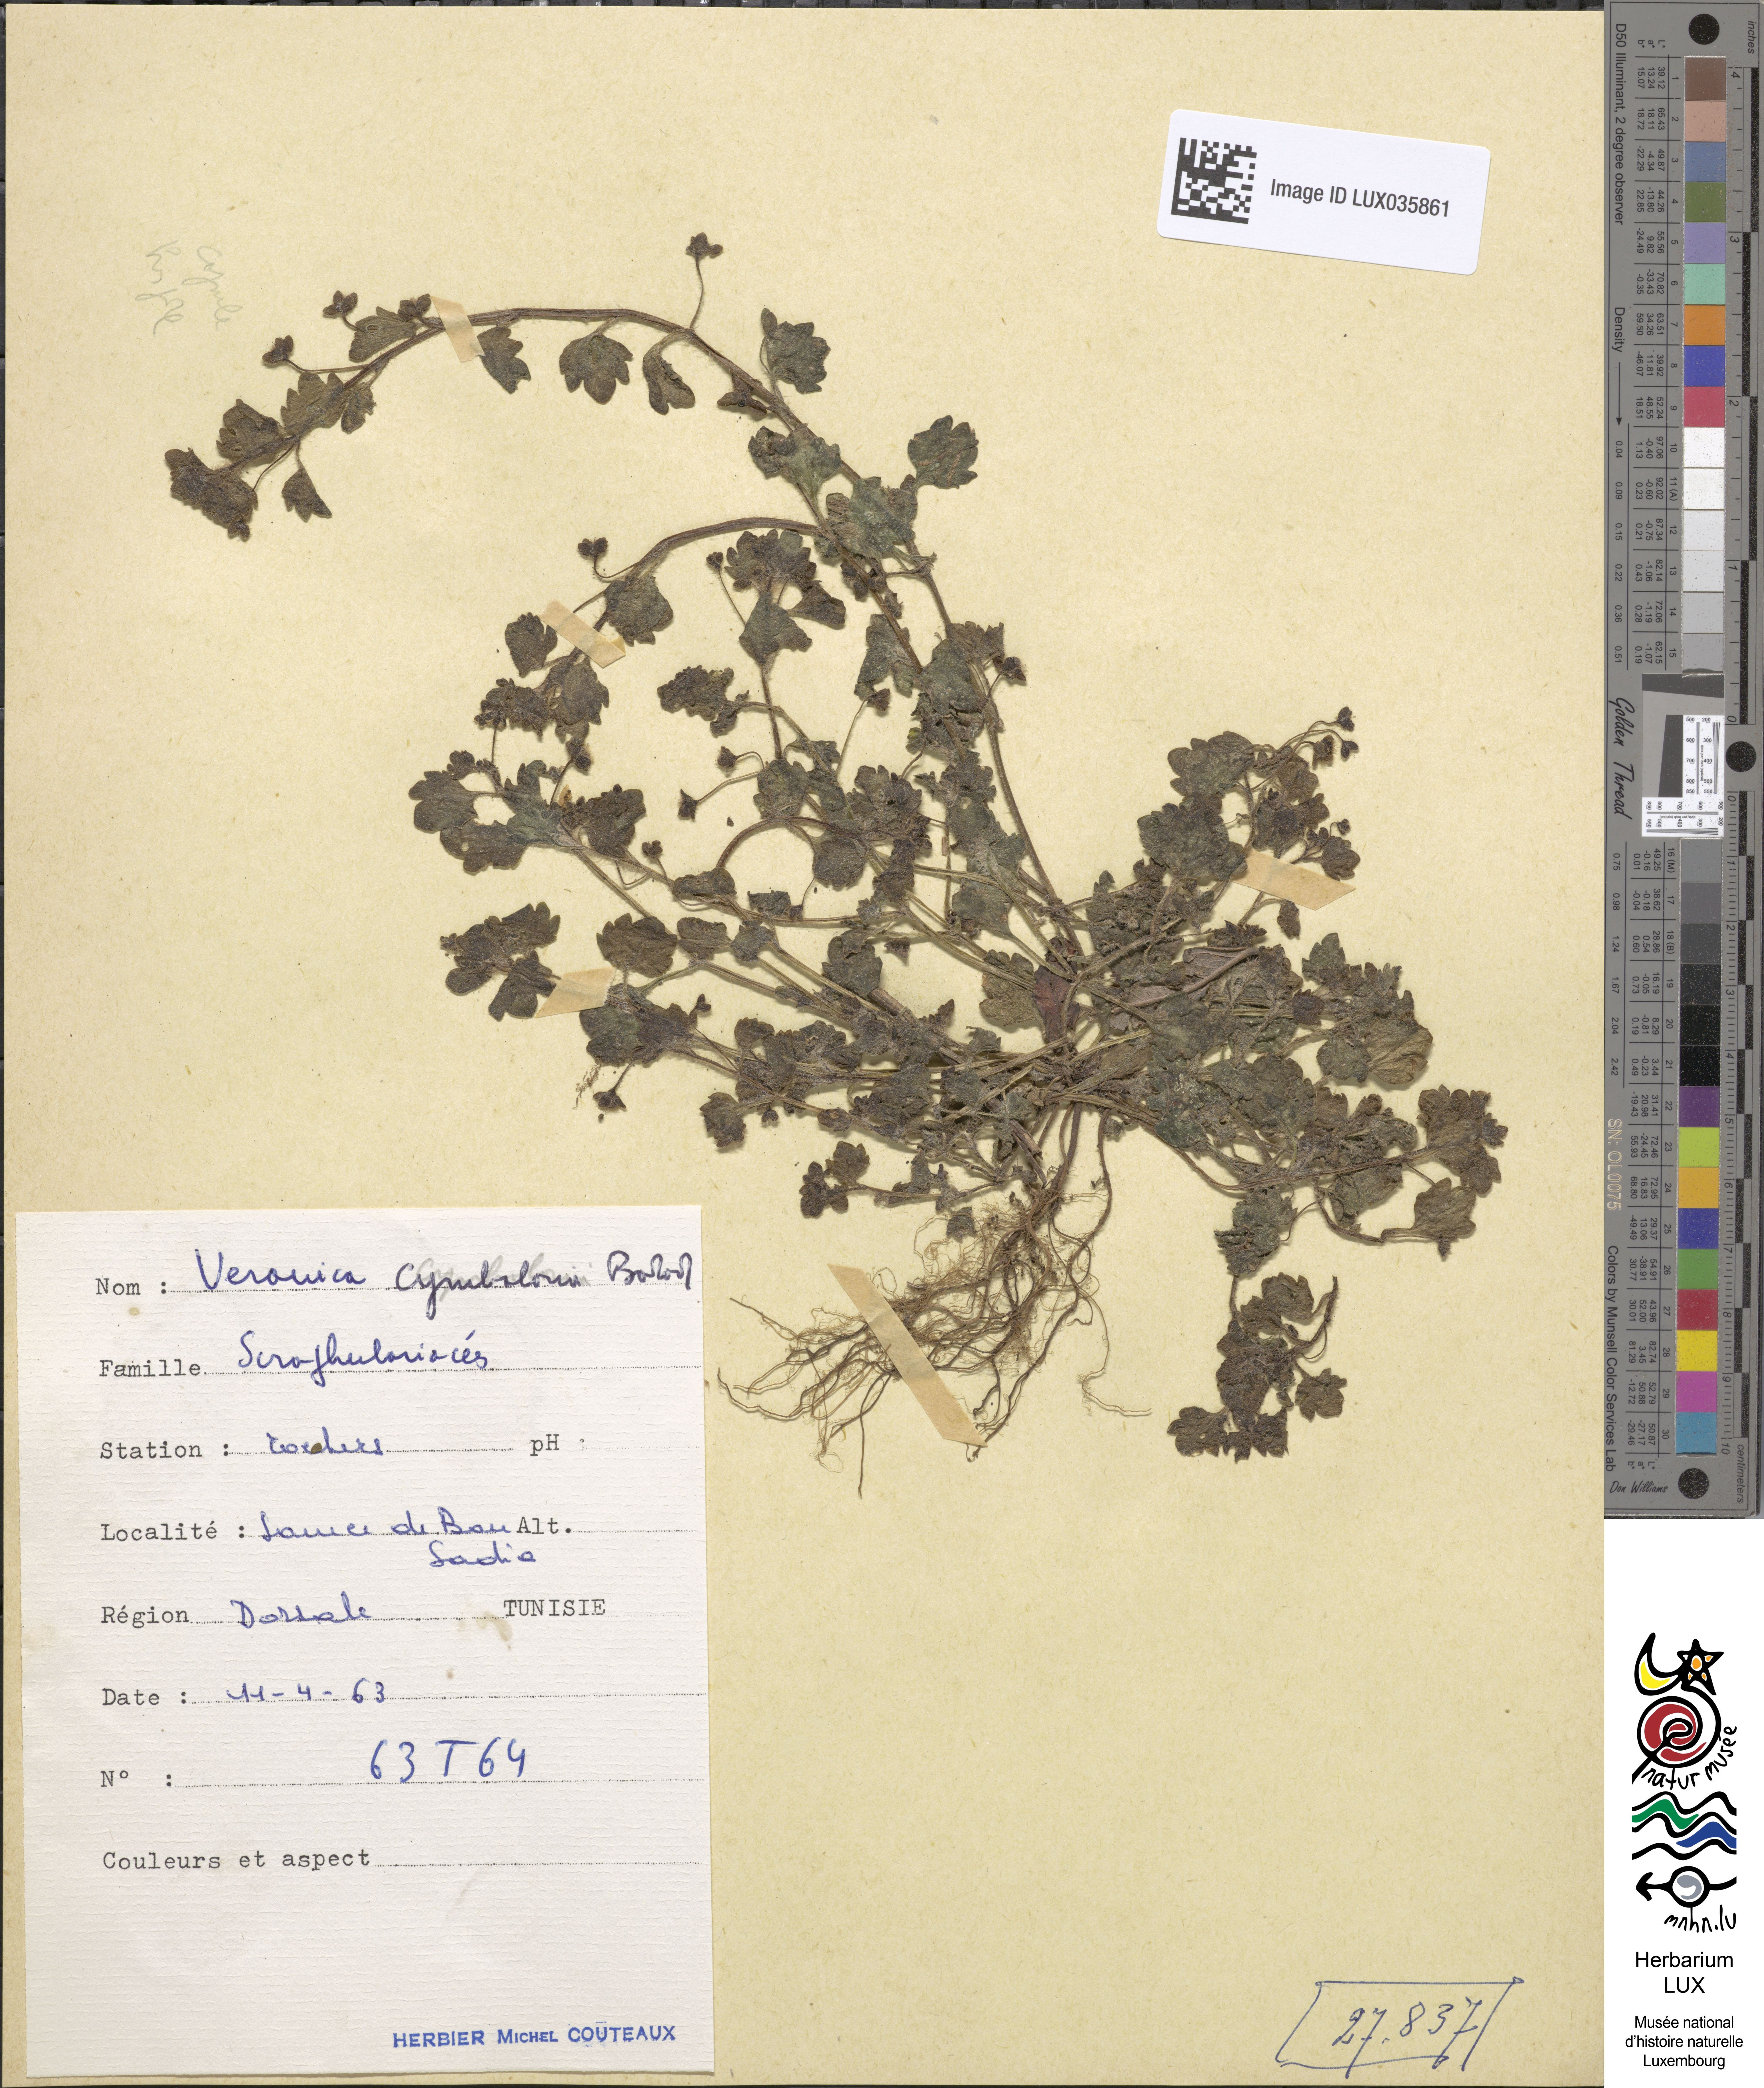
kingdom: Plantae
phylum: Tracheophyta
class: Magnoliopsida
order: Lamiales
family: Plantaginaceae
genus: Veronica
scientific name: Veronica cymbalaria
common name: Pale speedwell
